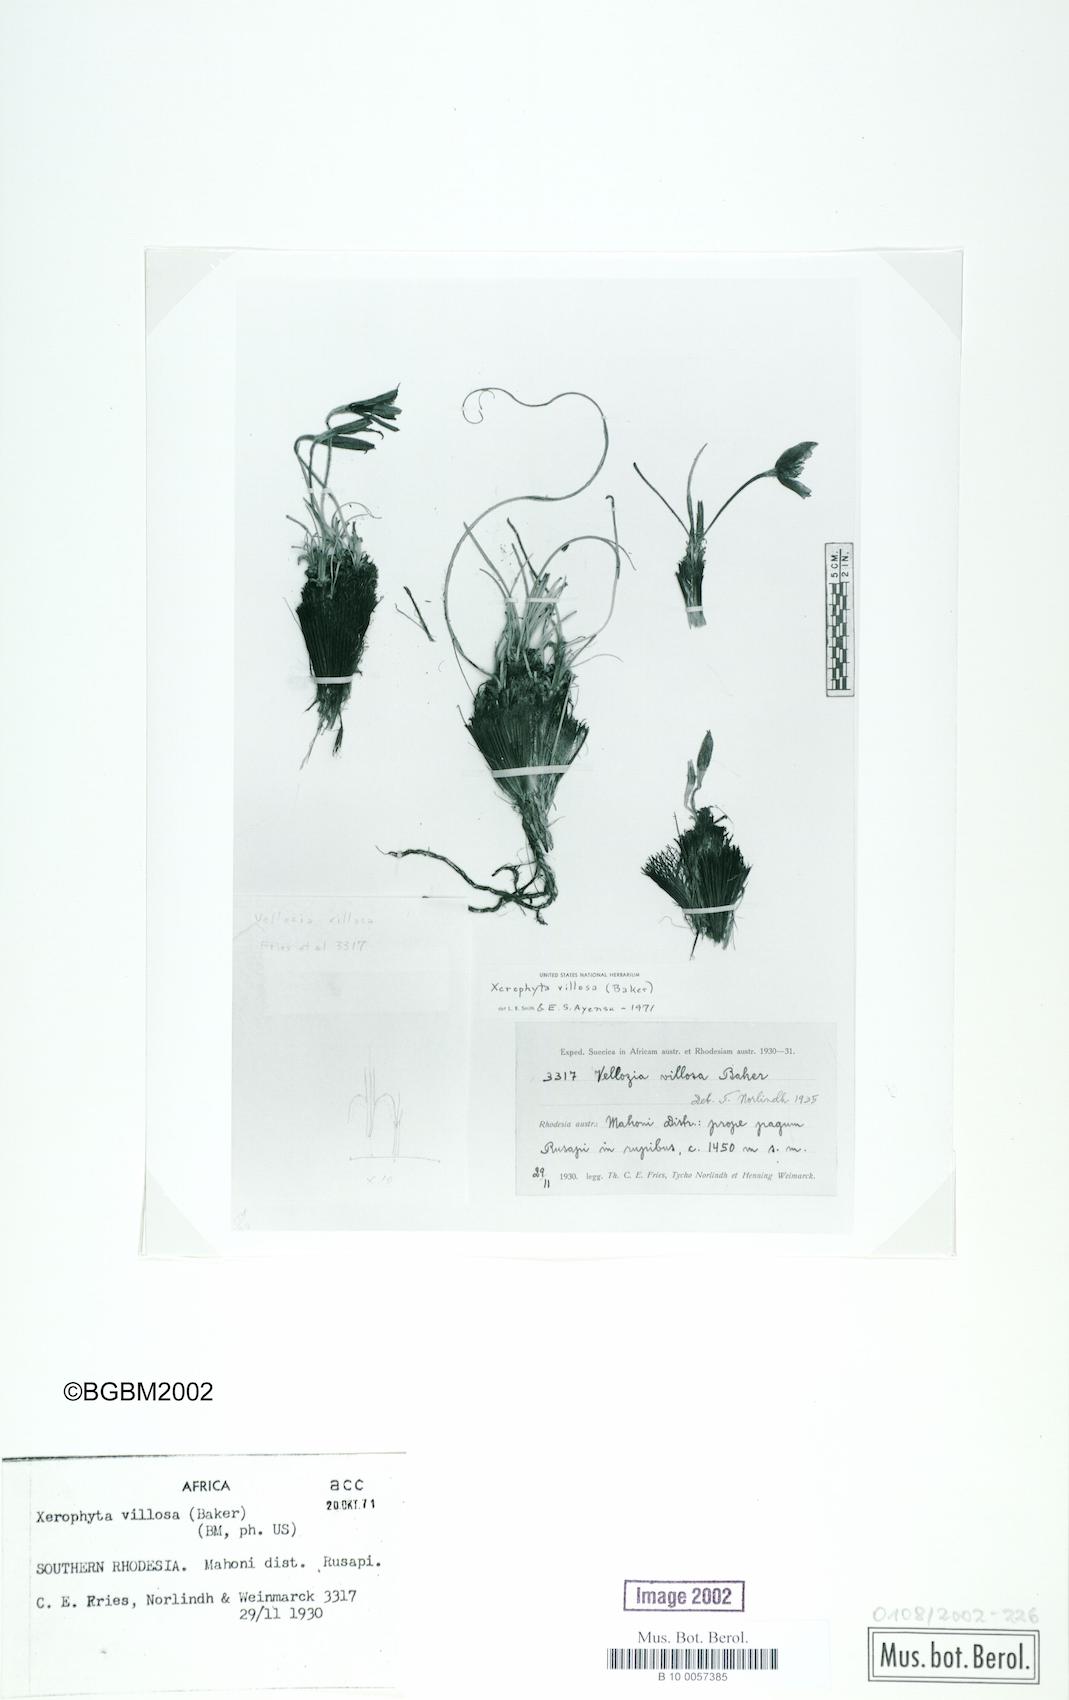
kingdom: Plantae
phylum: Tracheophyta
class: Liliopsida
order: Pandanales
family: Velloziaceae
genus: Xerophyta
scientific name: Xerophyta villosa
